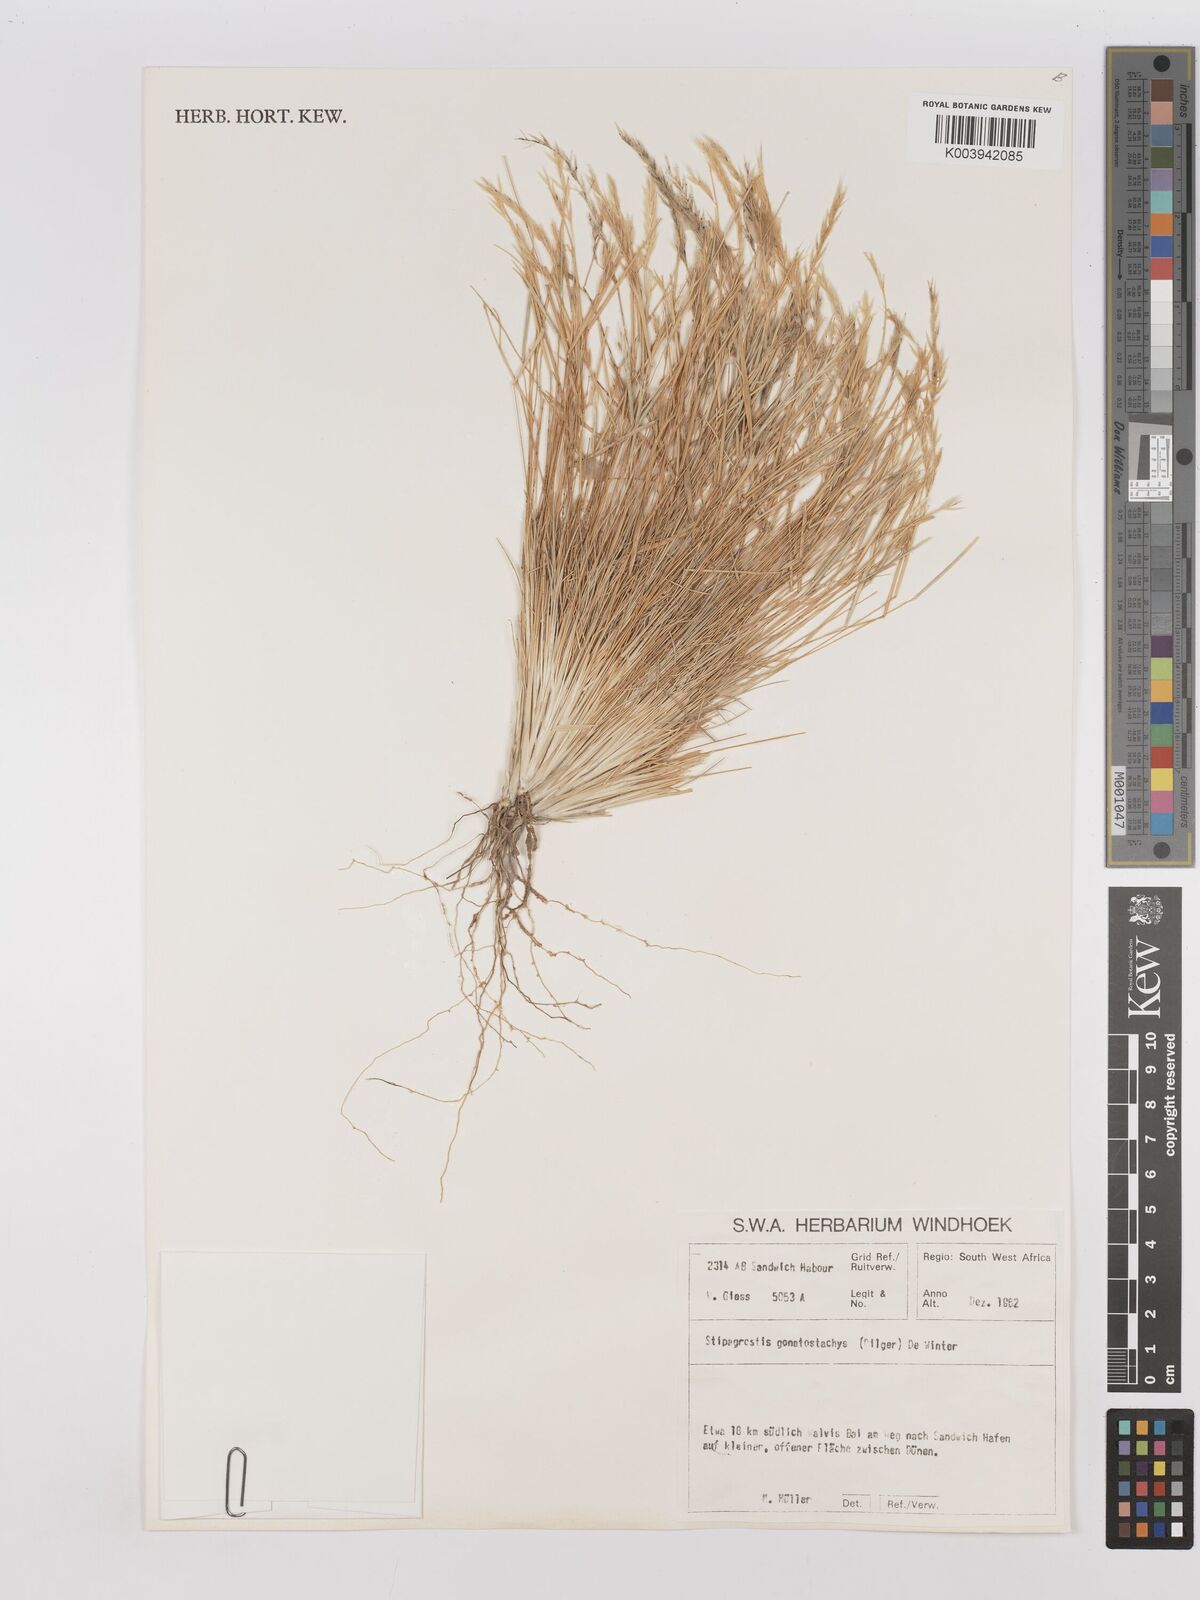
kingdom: Plantae
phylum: Tracheophyta
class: Liliopsida
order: Poales
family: Poaceae
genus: Stipagrostis
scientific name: Stipagrostis gonatostachys
